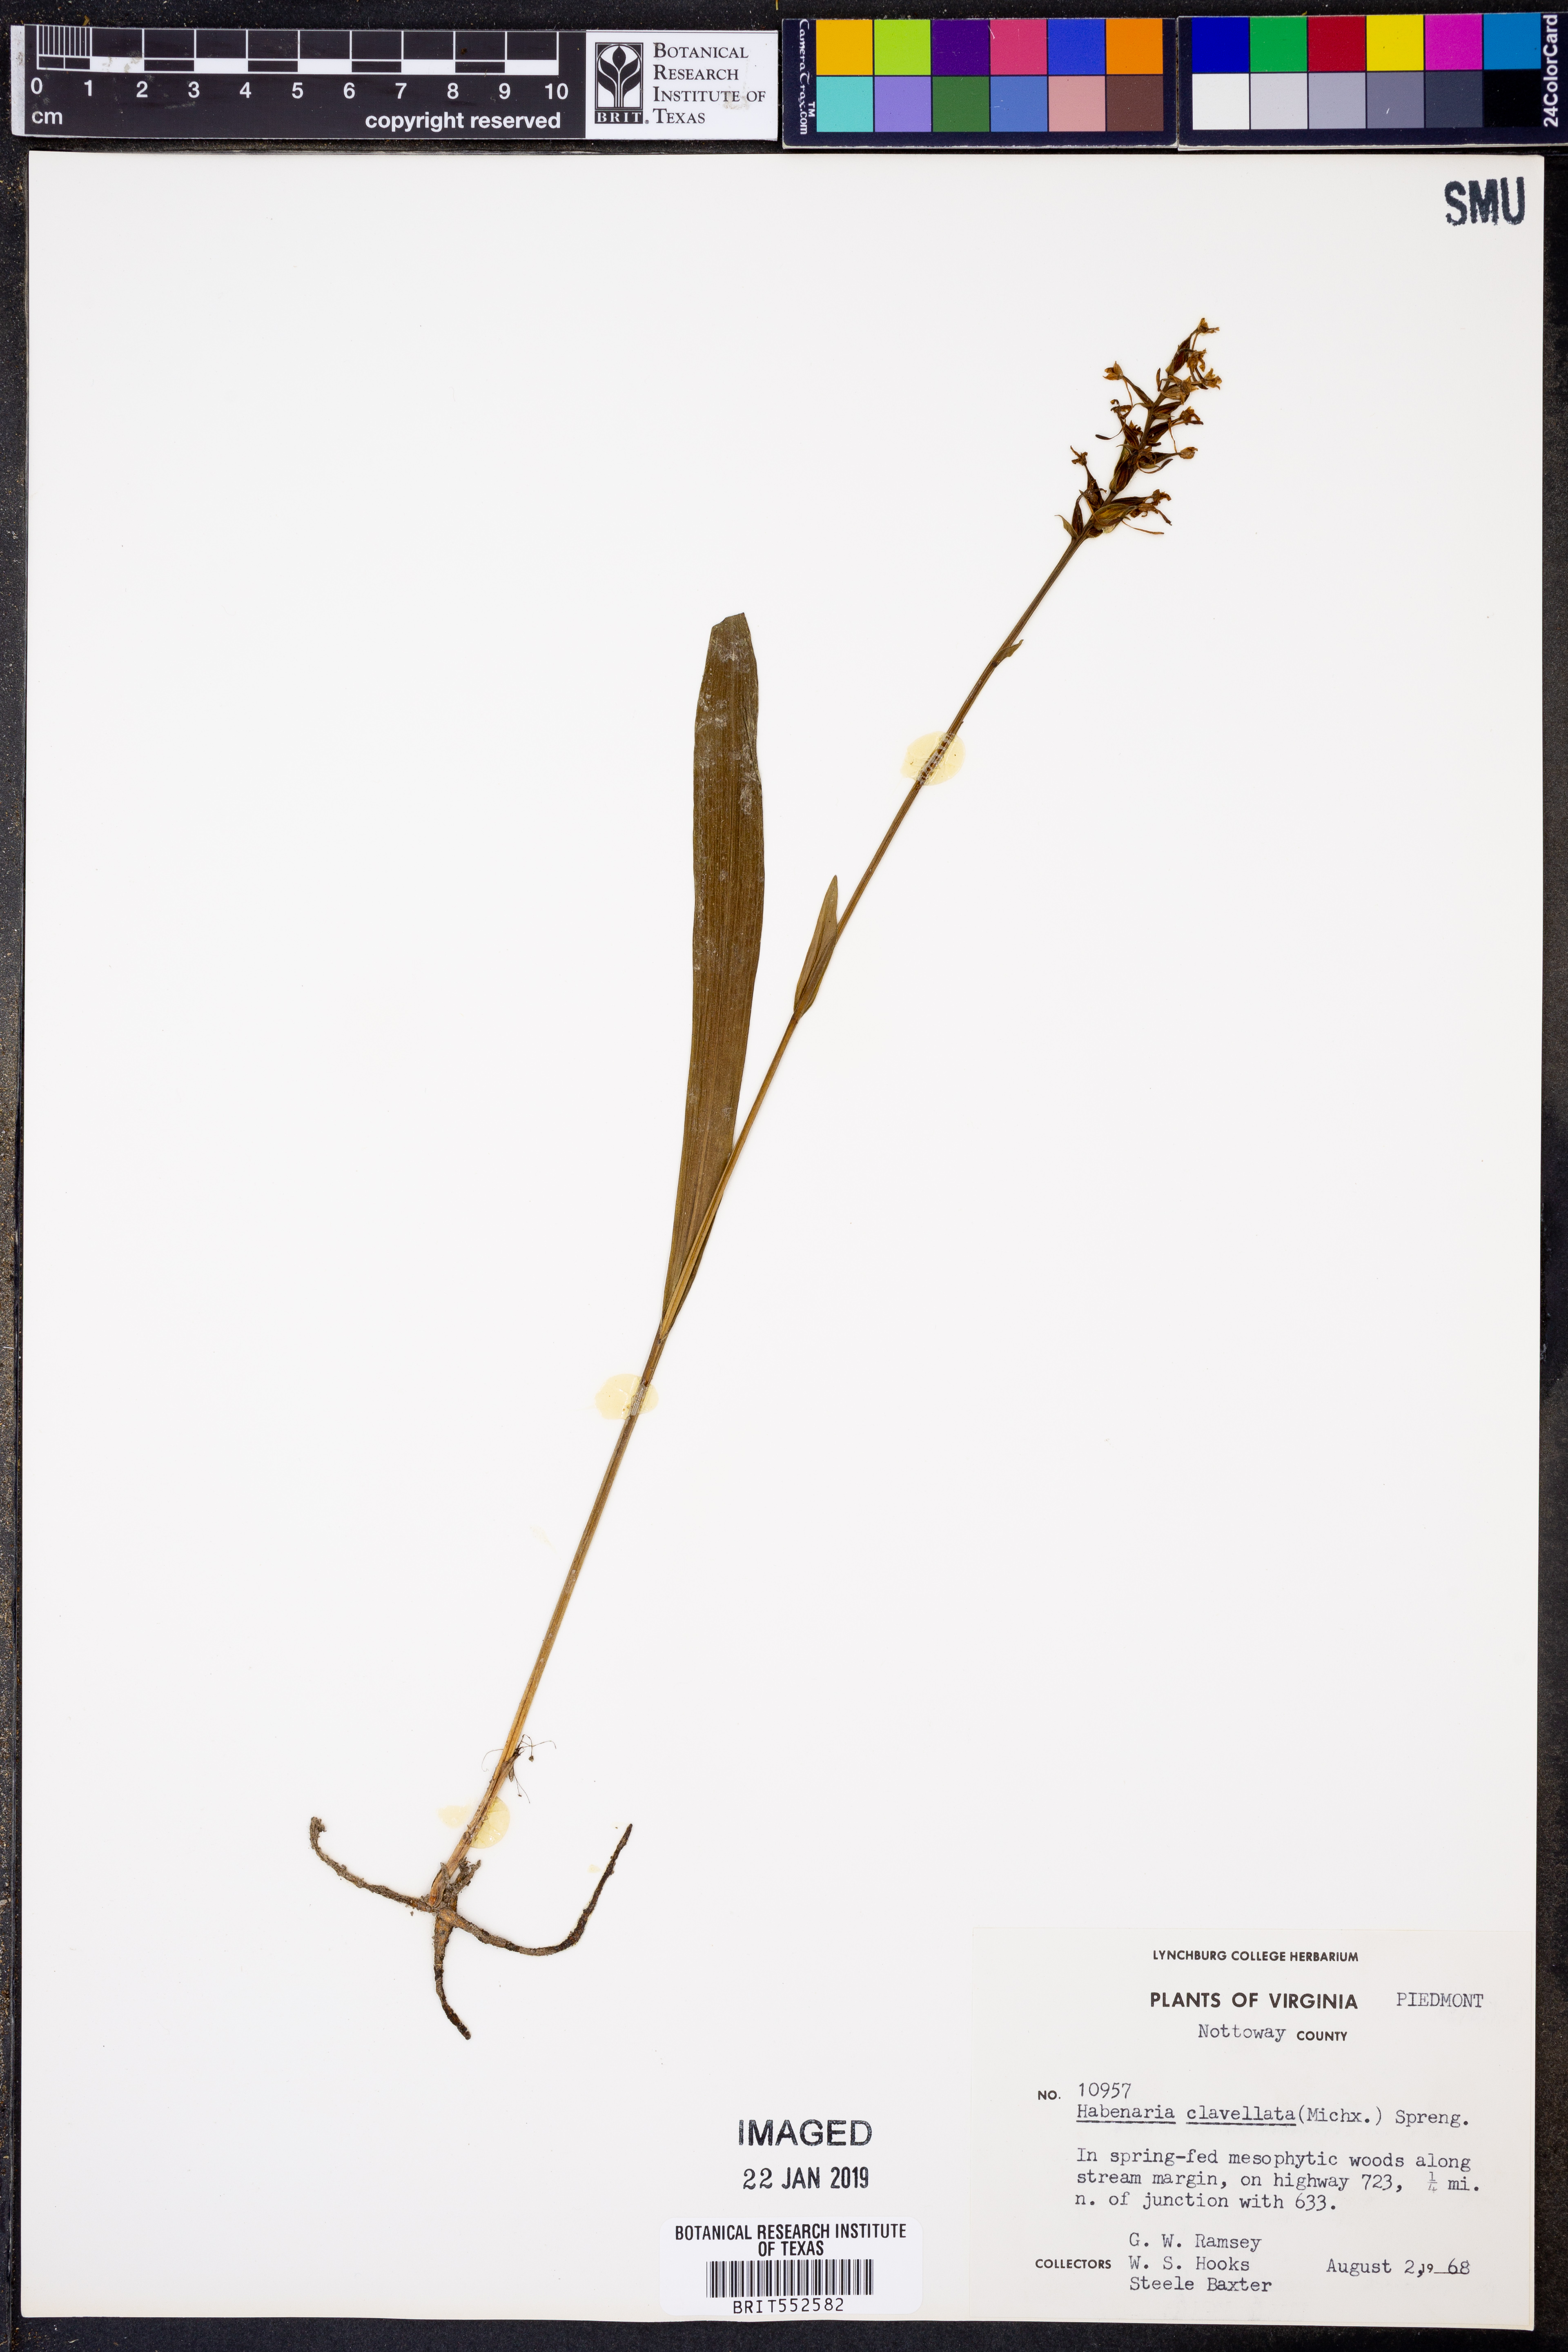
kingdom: Plantae
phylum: Tracheophyta
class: Liliopsida
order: Asparagales
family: Orchidaceae
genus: Platanthera
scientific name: Platanthera clavellata
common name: Club-spur orchid
